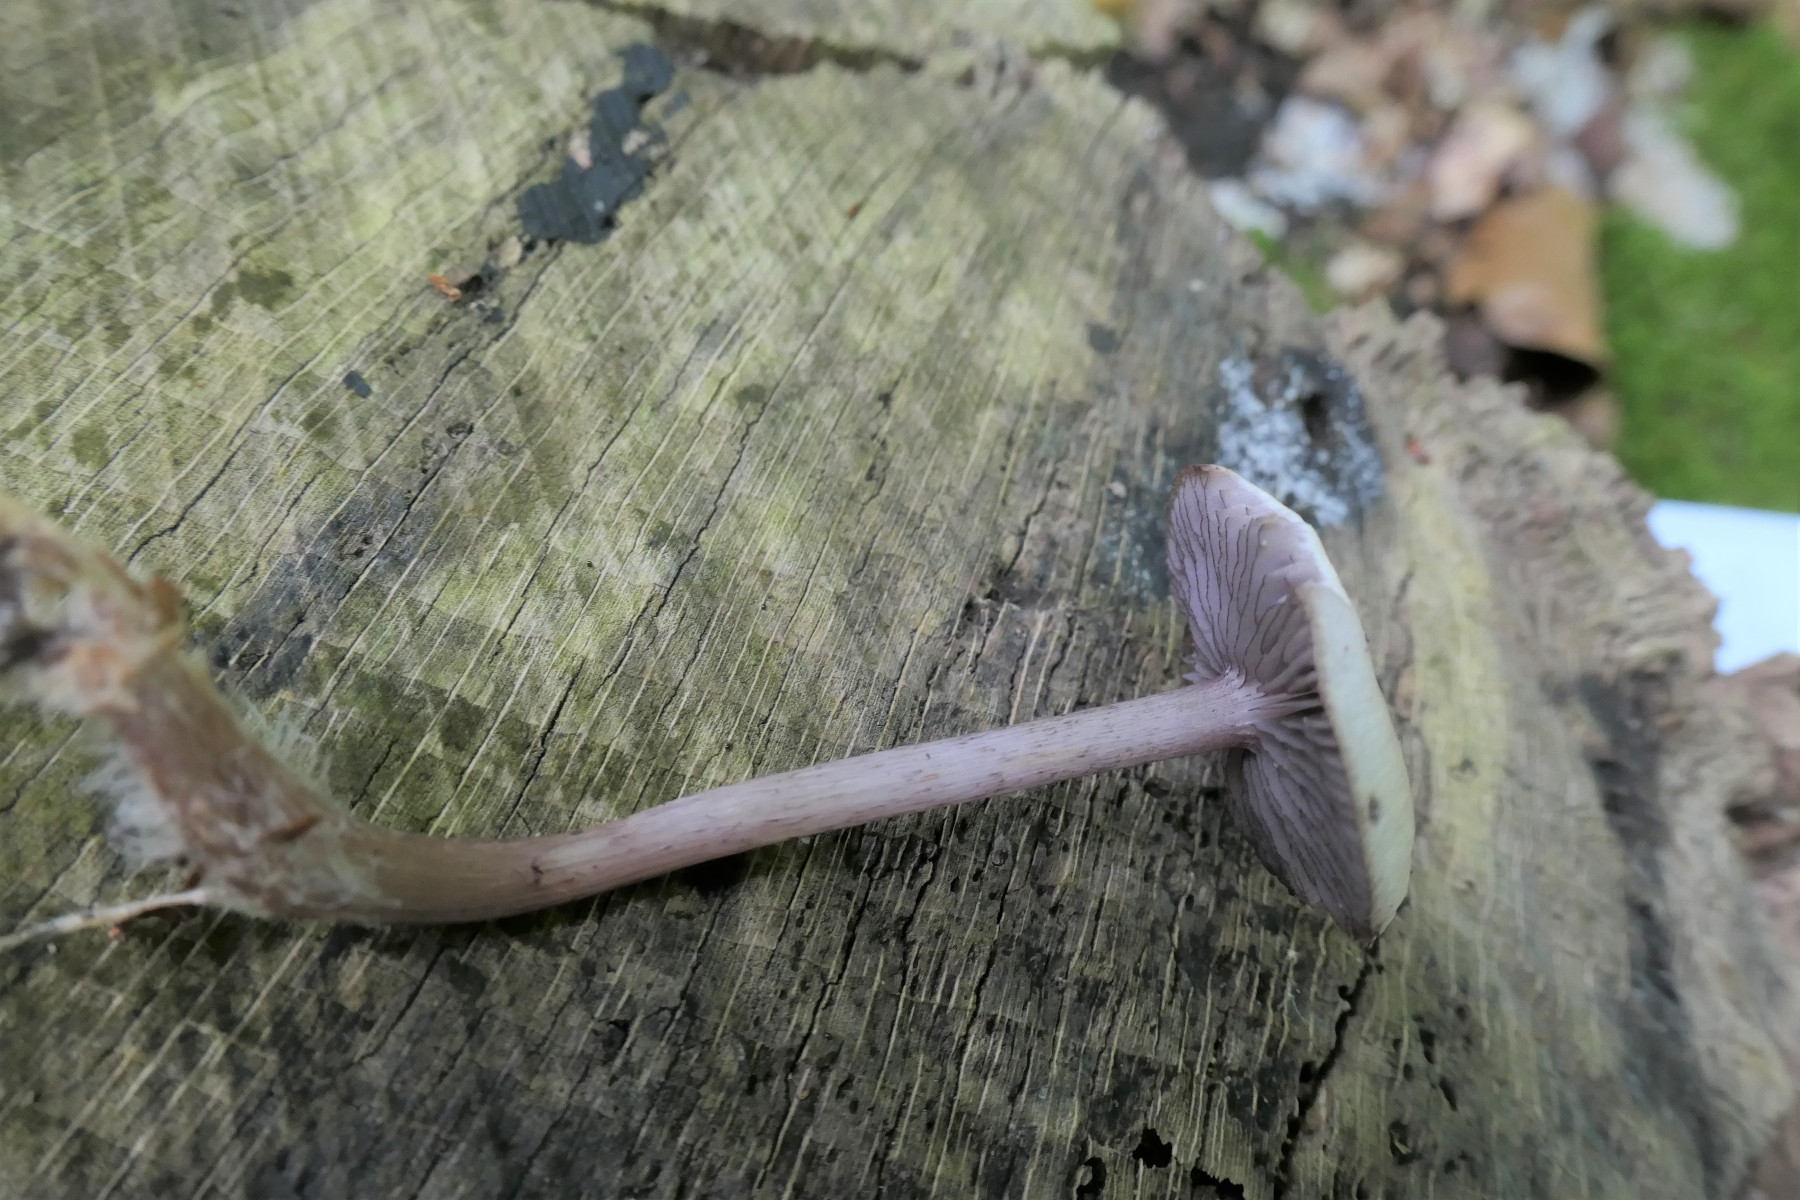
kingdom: Fungi
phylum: Basidiomycota
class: Agaricomycetes
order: Agaricales
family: Mycenaceae
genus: Mycena
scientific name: Mycena pelianthina
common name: mørkbladet huesvamp
